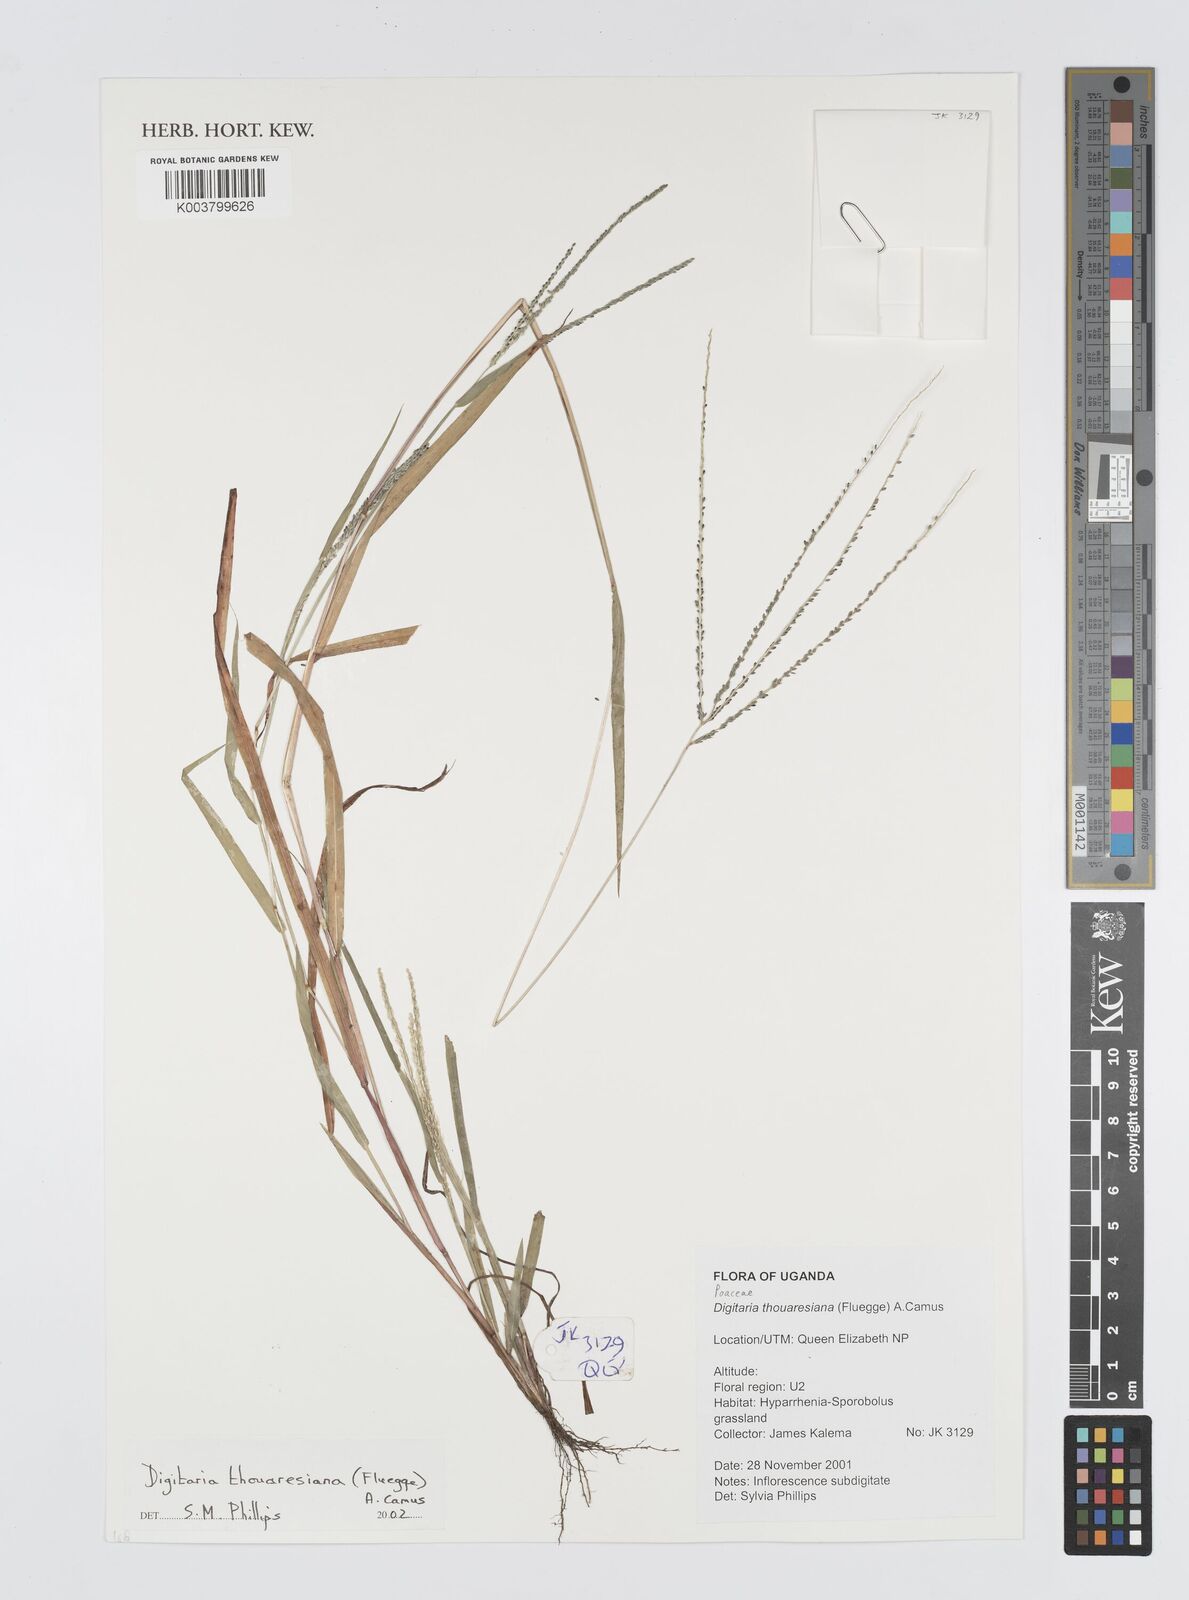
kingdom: Plantae
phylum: Tracheophyta
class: Liliopsida
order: Poales
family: Poaceae
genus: Digitaria
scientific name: Digitaria thouarsiana
